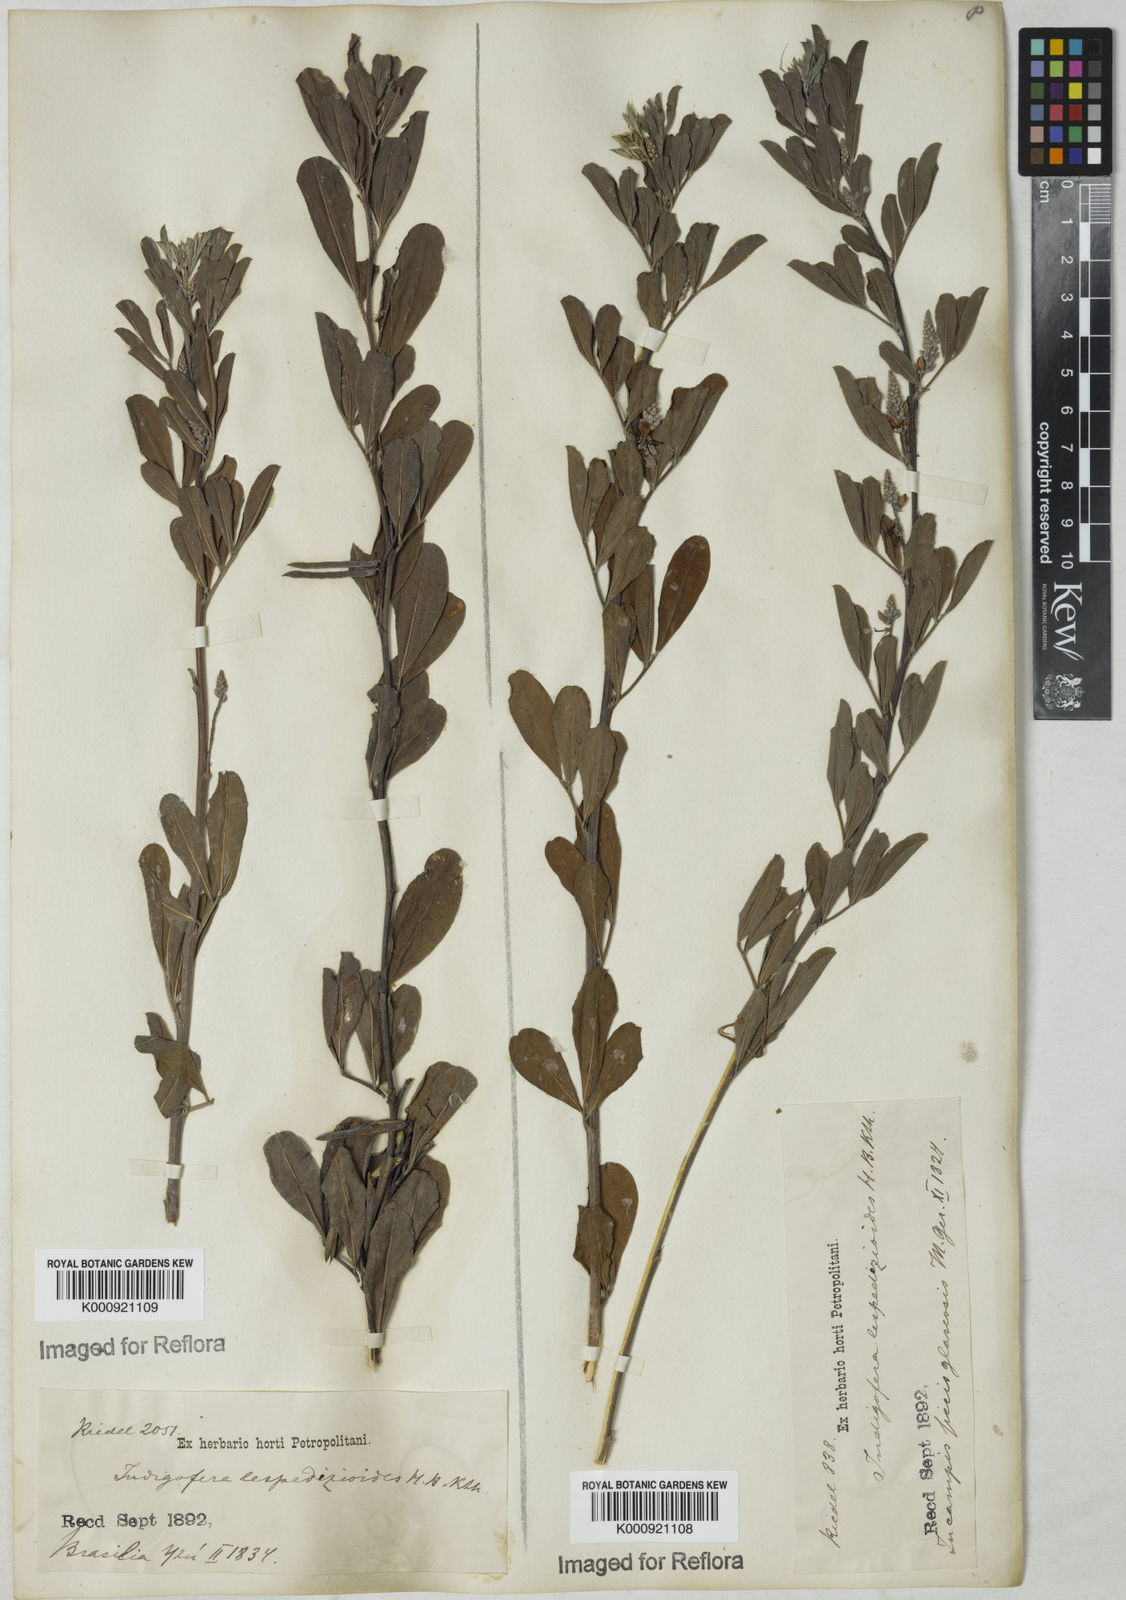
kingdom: Plantae
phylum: Tracheophyta
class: Magnoliopsida
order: Fabales
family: Fabaceae
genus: Indigofera
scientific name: Indigofera lespedezioides
